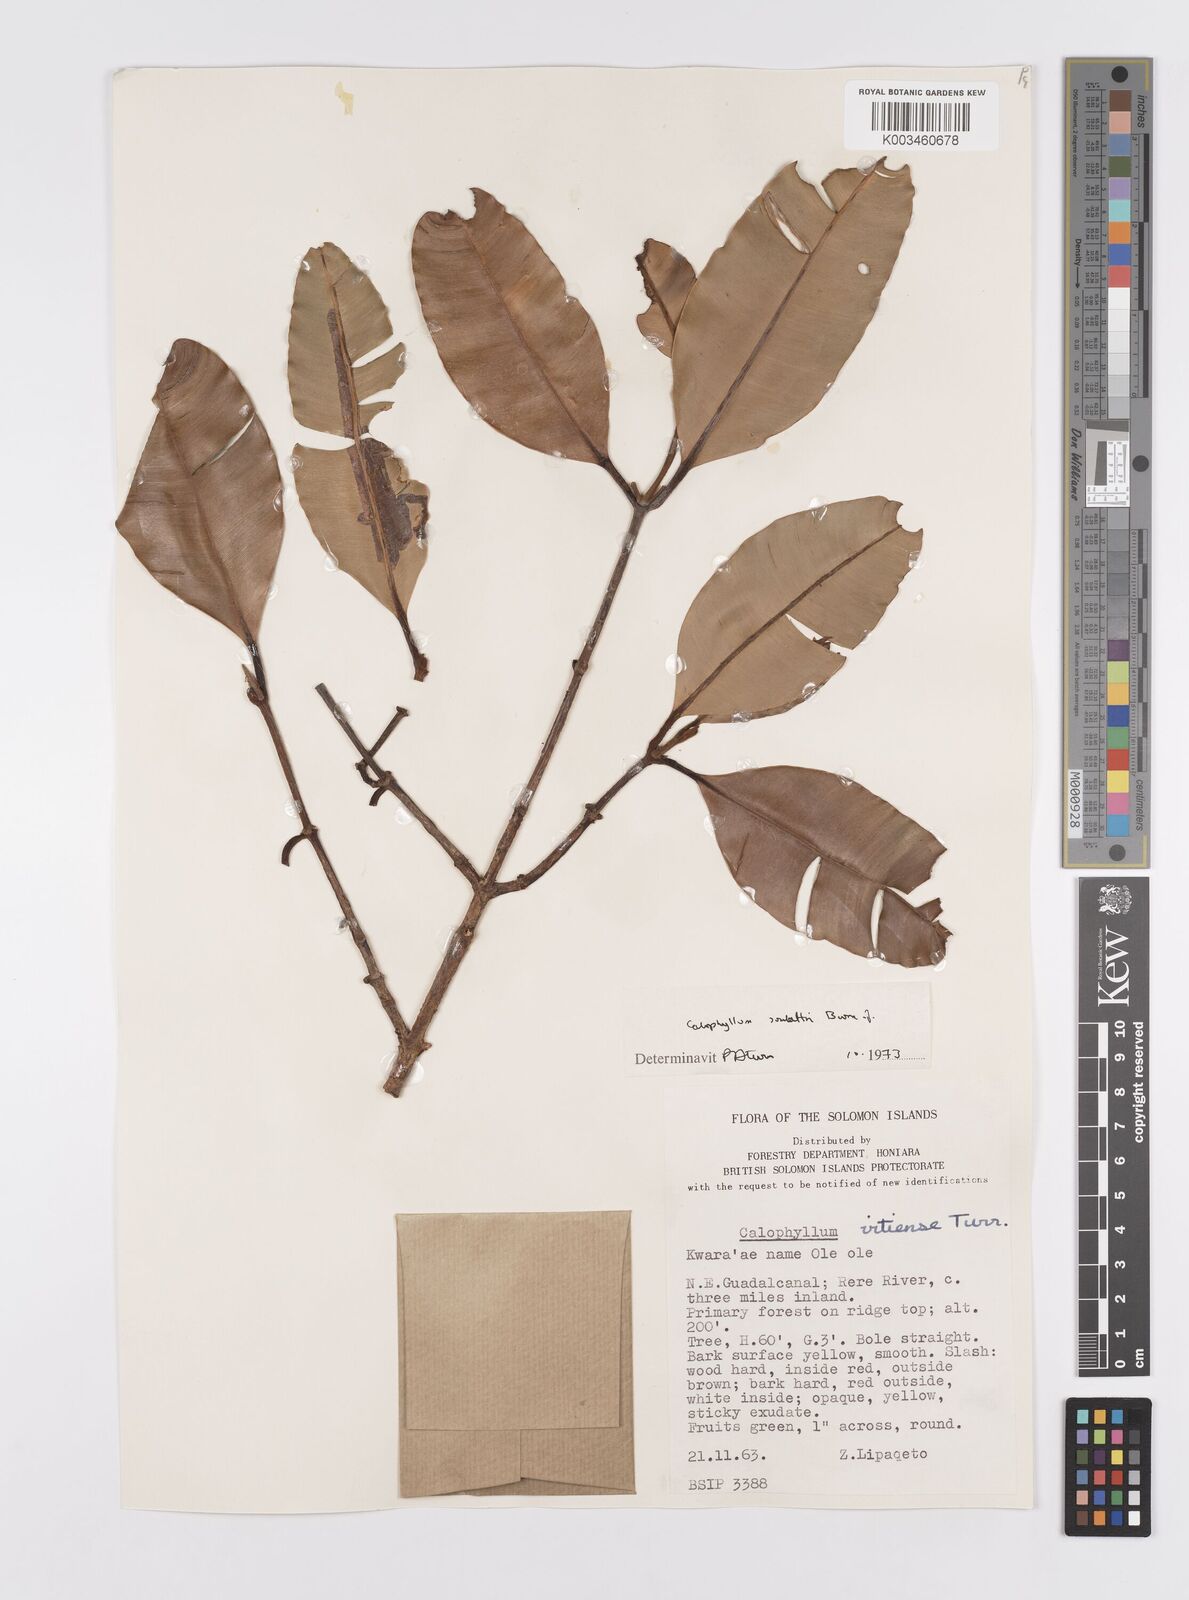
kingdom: Plantae
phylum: Tracheophyta
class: Magnoliopsida
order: Malpighiales
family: Calophyllaceae
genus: Calophyllum
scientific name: Calophyllum soulattri
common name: Bitangoor boonot
